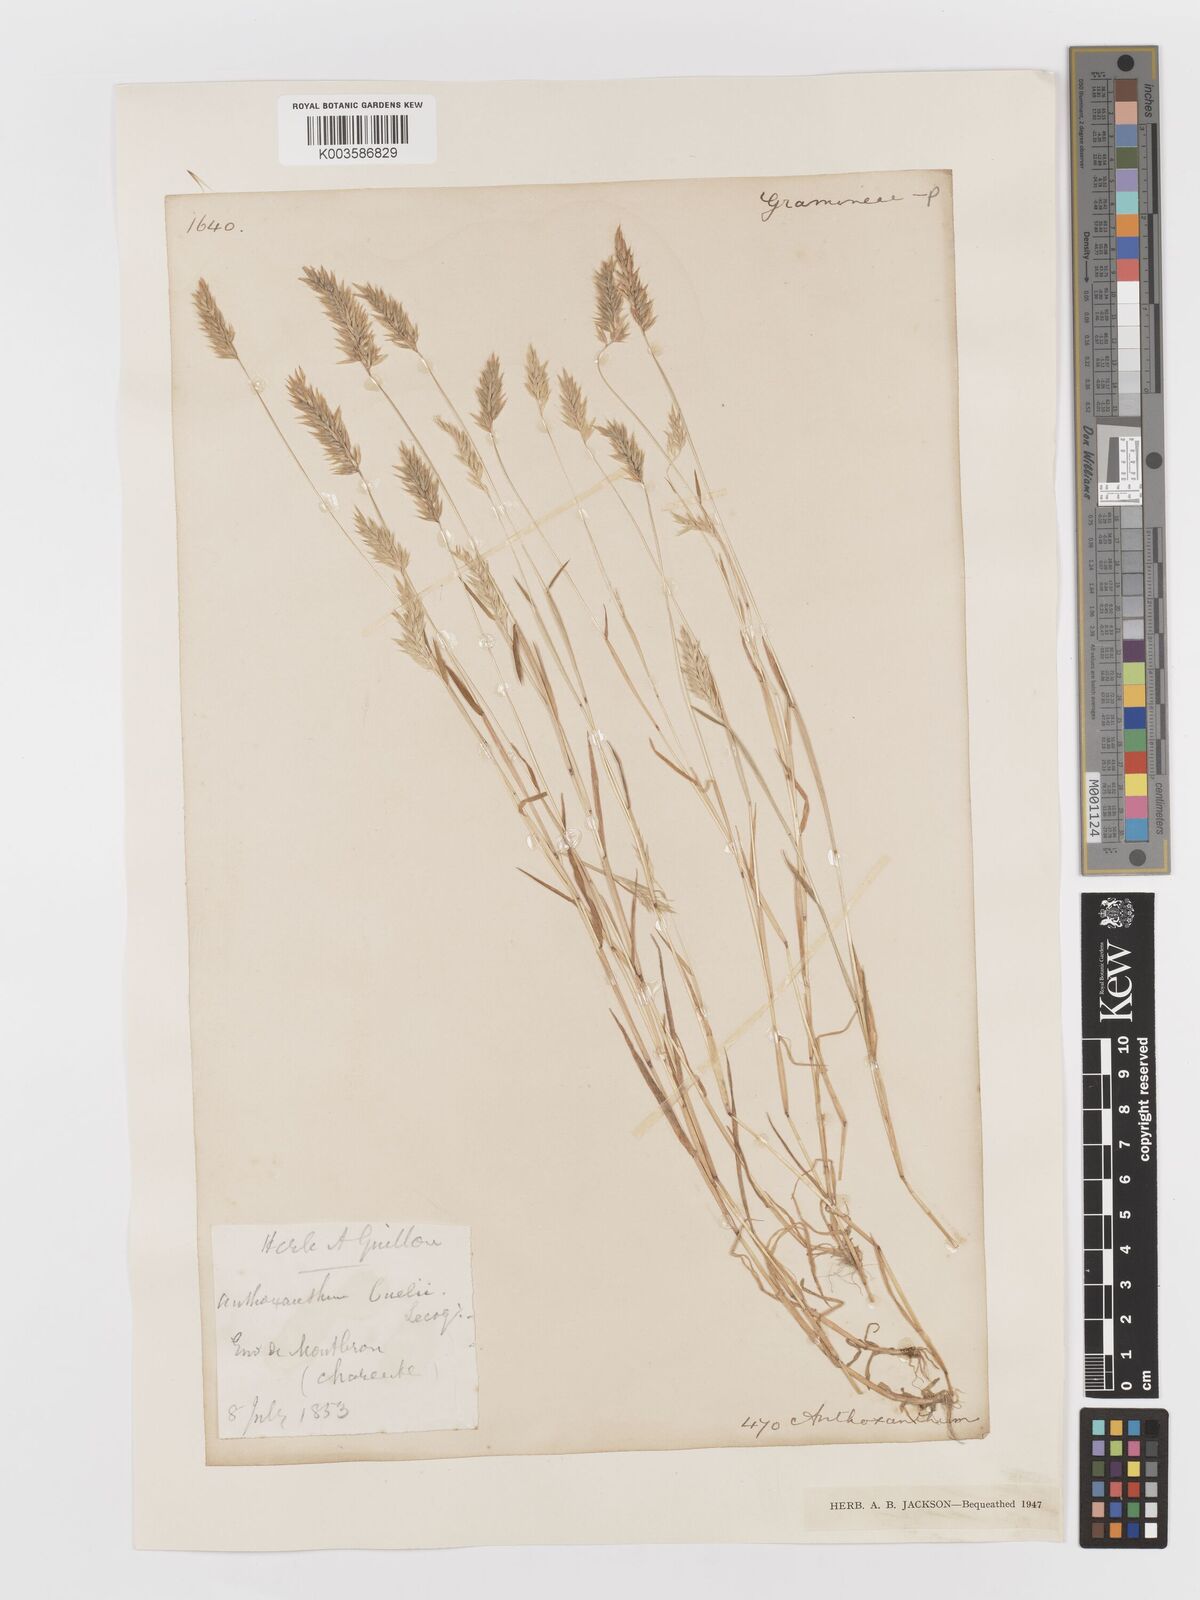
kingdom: Plantae
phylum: Tracheophyta
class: Liliopsida
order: Poales
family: Poaceae
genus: Anthoxanthum
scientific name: Anthoxanthum
